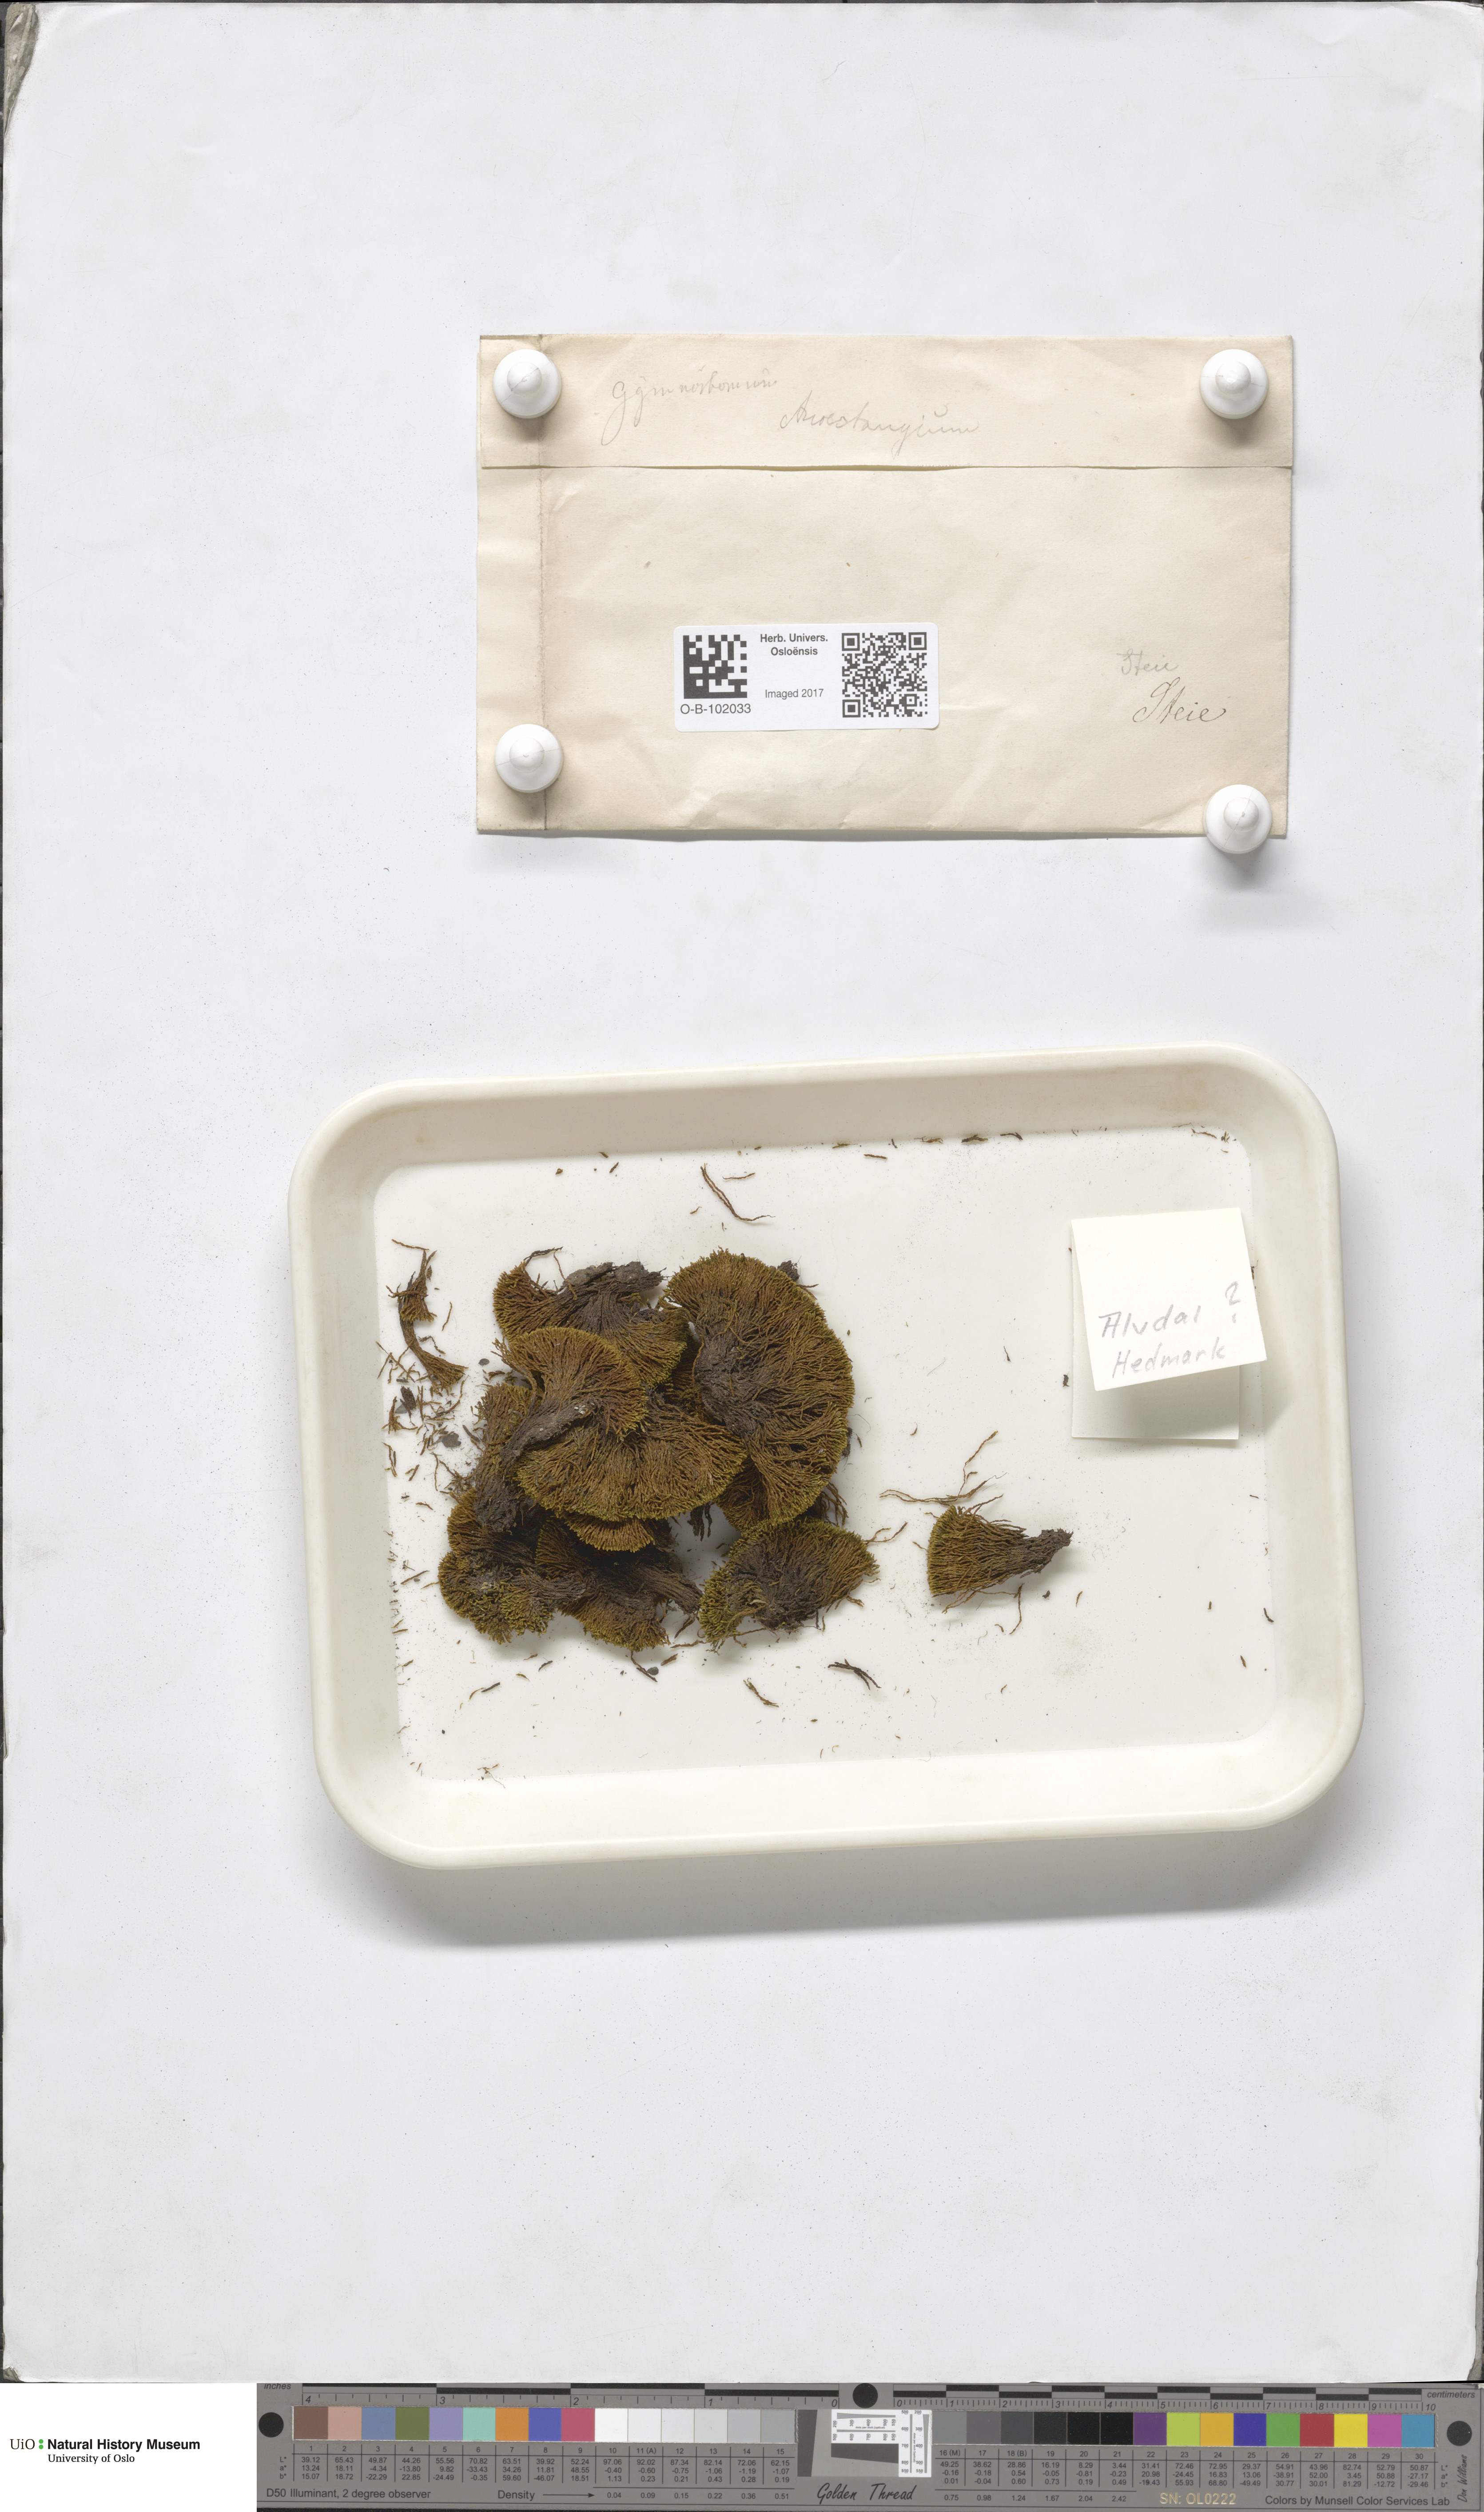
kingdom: Plantae
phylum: Bryophyta
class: Bryopsida
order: Pottiales
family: Pottiaceae
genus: Anoectangium
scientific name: Anoectangium aestivum
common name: Summer-moss
